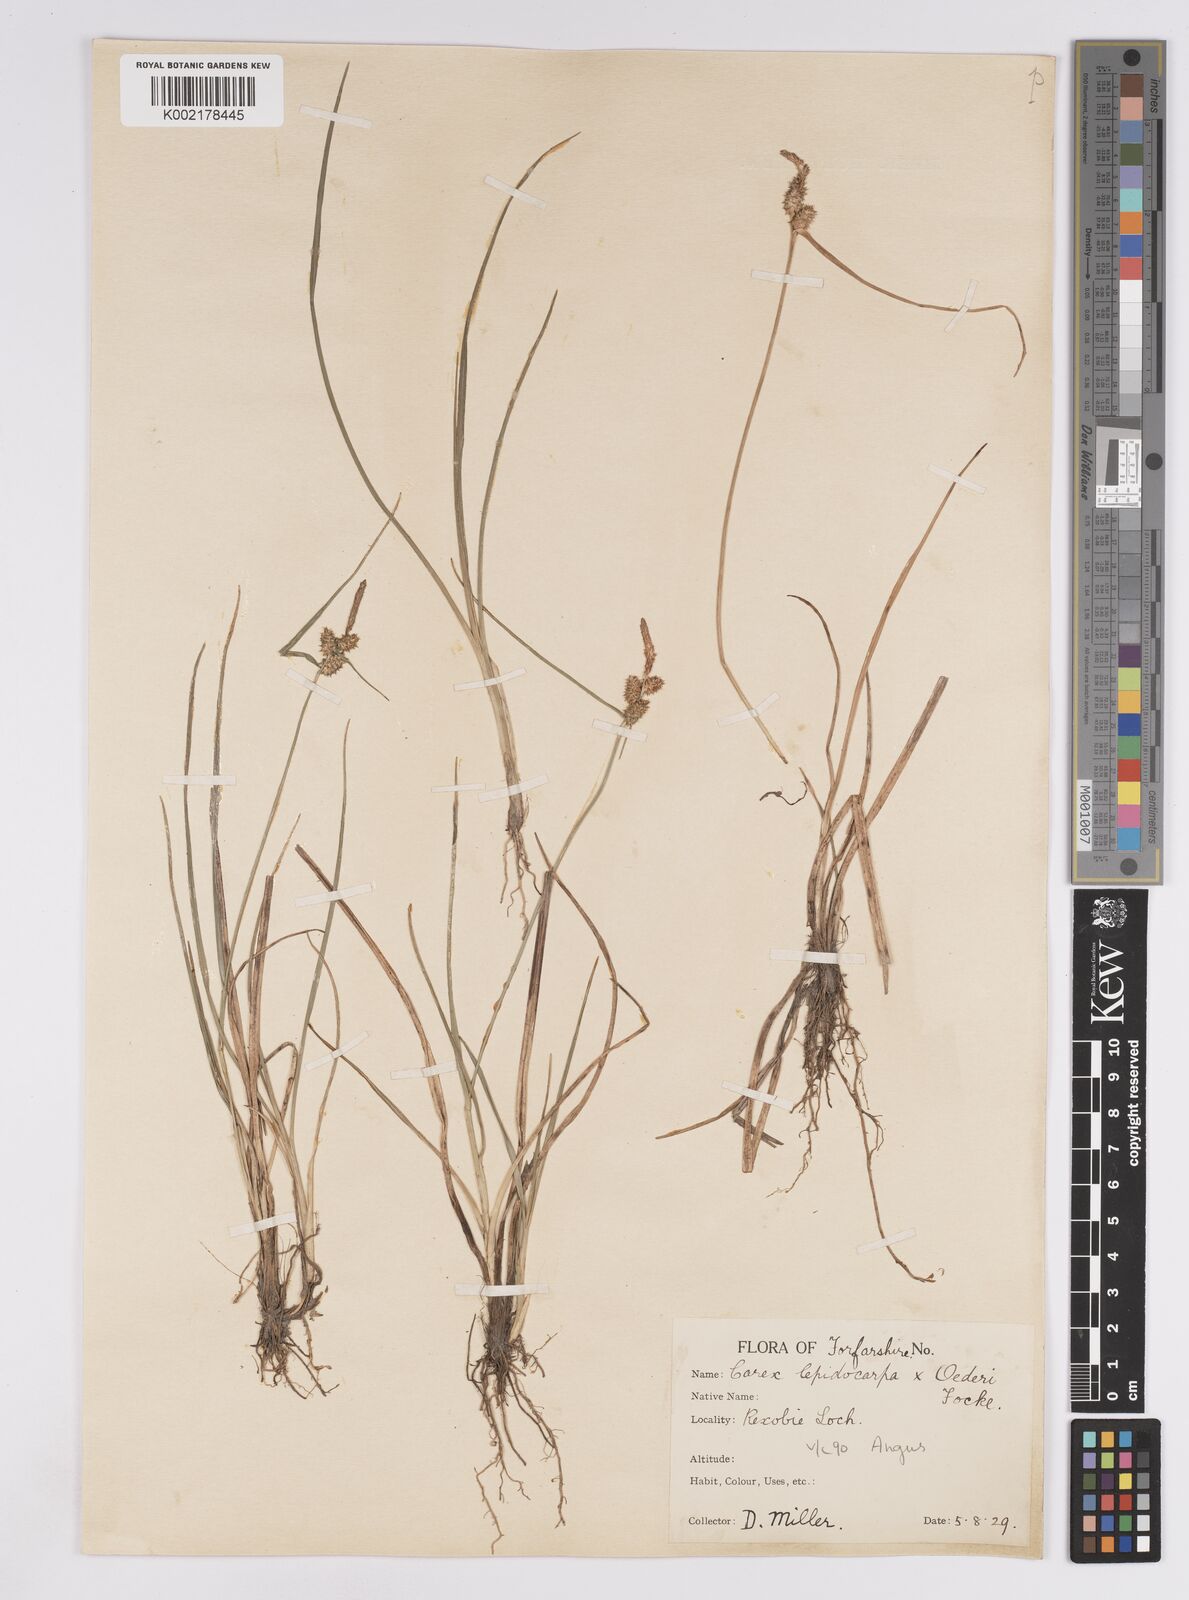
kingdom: Plantae
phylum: Tracheophyta
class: Liliopsida
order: Poales
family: Cyperaceae
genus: Carex
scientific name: Carex lepidocarpa
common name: Long-stalked yellow-sedge
